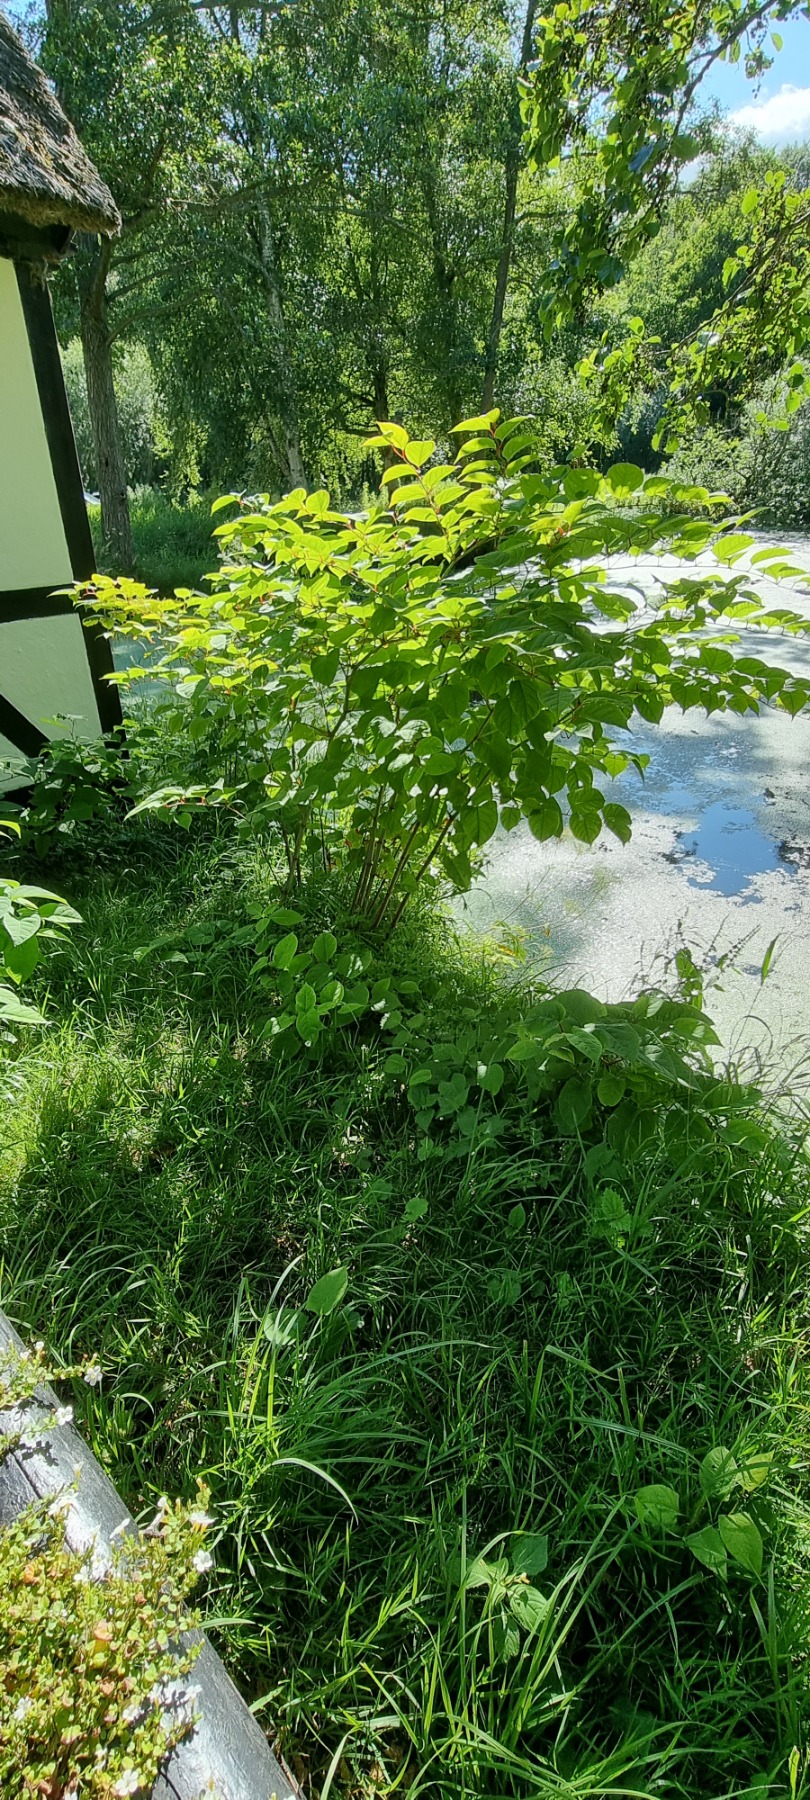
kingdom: Plantae
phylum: Tracheophyta
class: Magnoliopsida
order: Caryophyllales
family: Polygonaceae
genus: Reynoutria
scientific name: Reynoutria japonica
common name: Japan-pileurt
